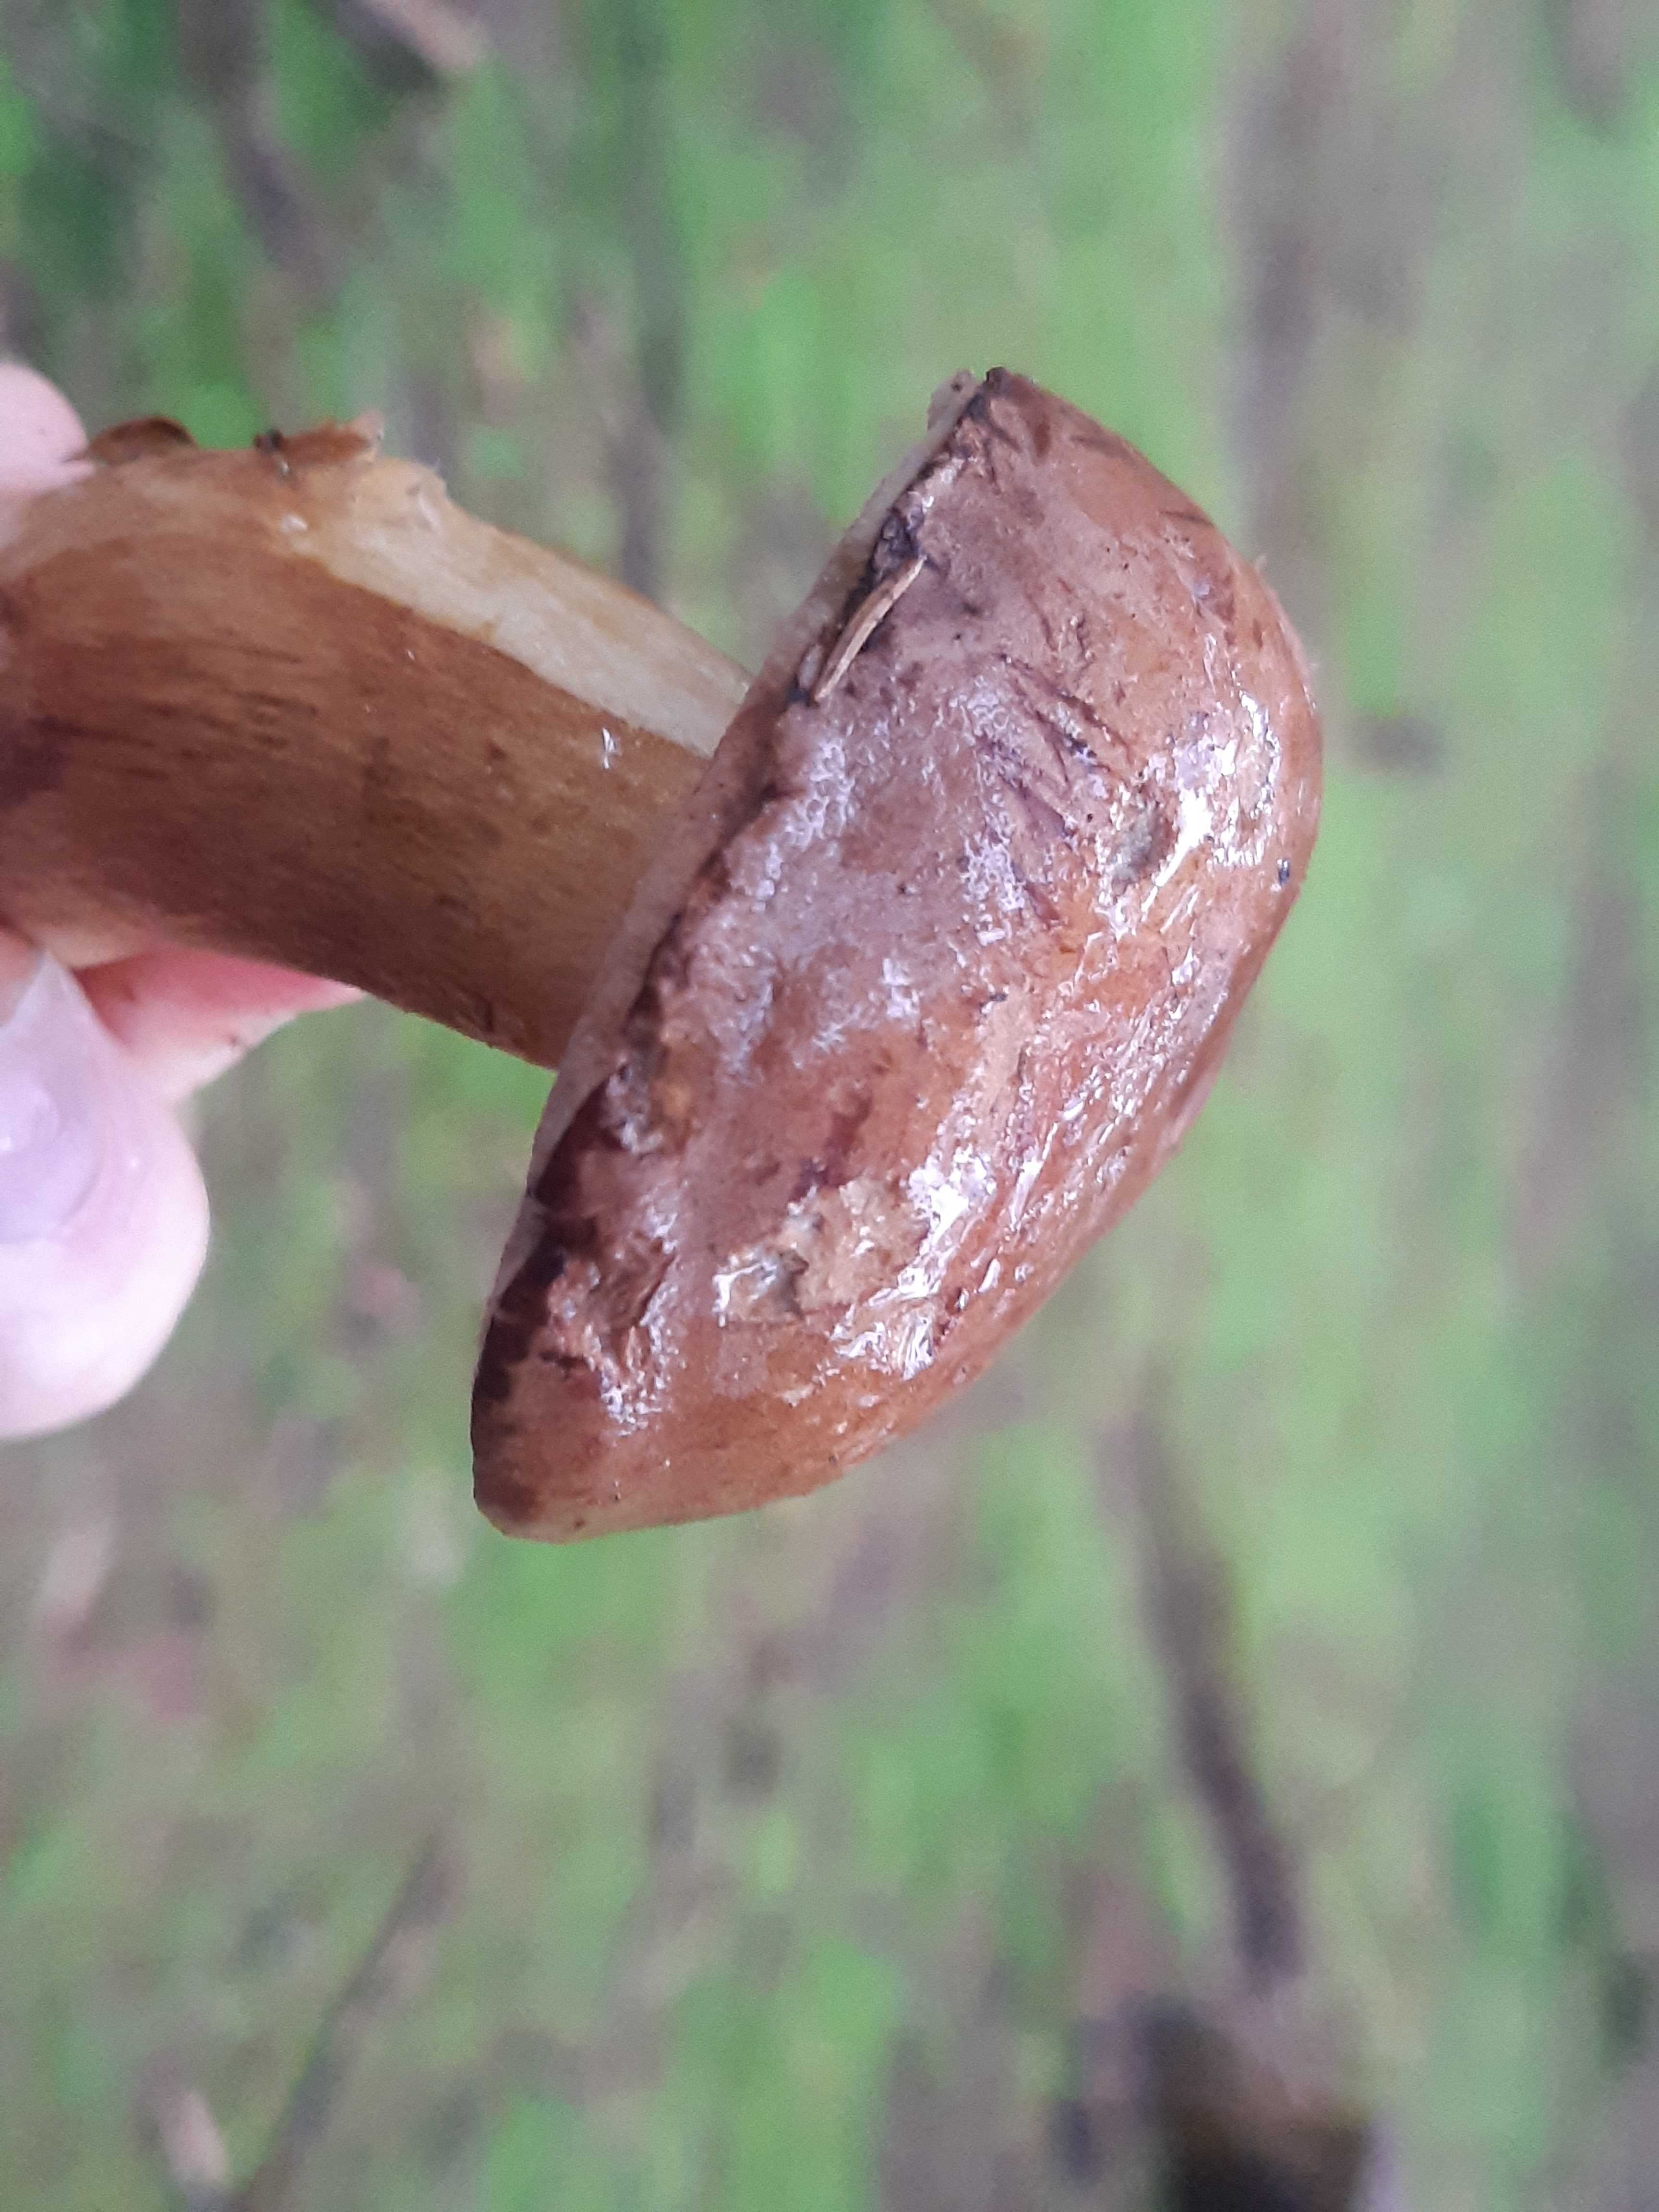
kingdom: Fungi
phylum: Basidiomycota
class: Agaricomycetes
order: Boletales
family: Boletaceae
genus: Imleria
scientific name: Imleria badia
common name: brunstokket rørhat
